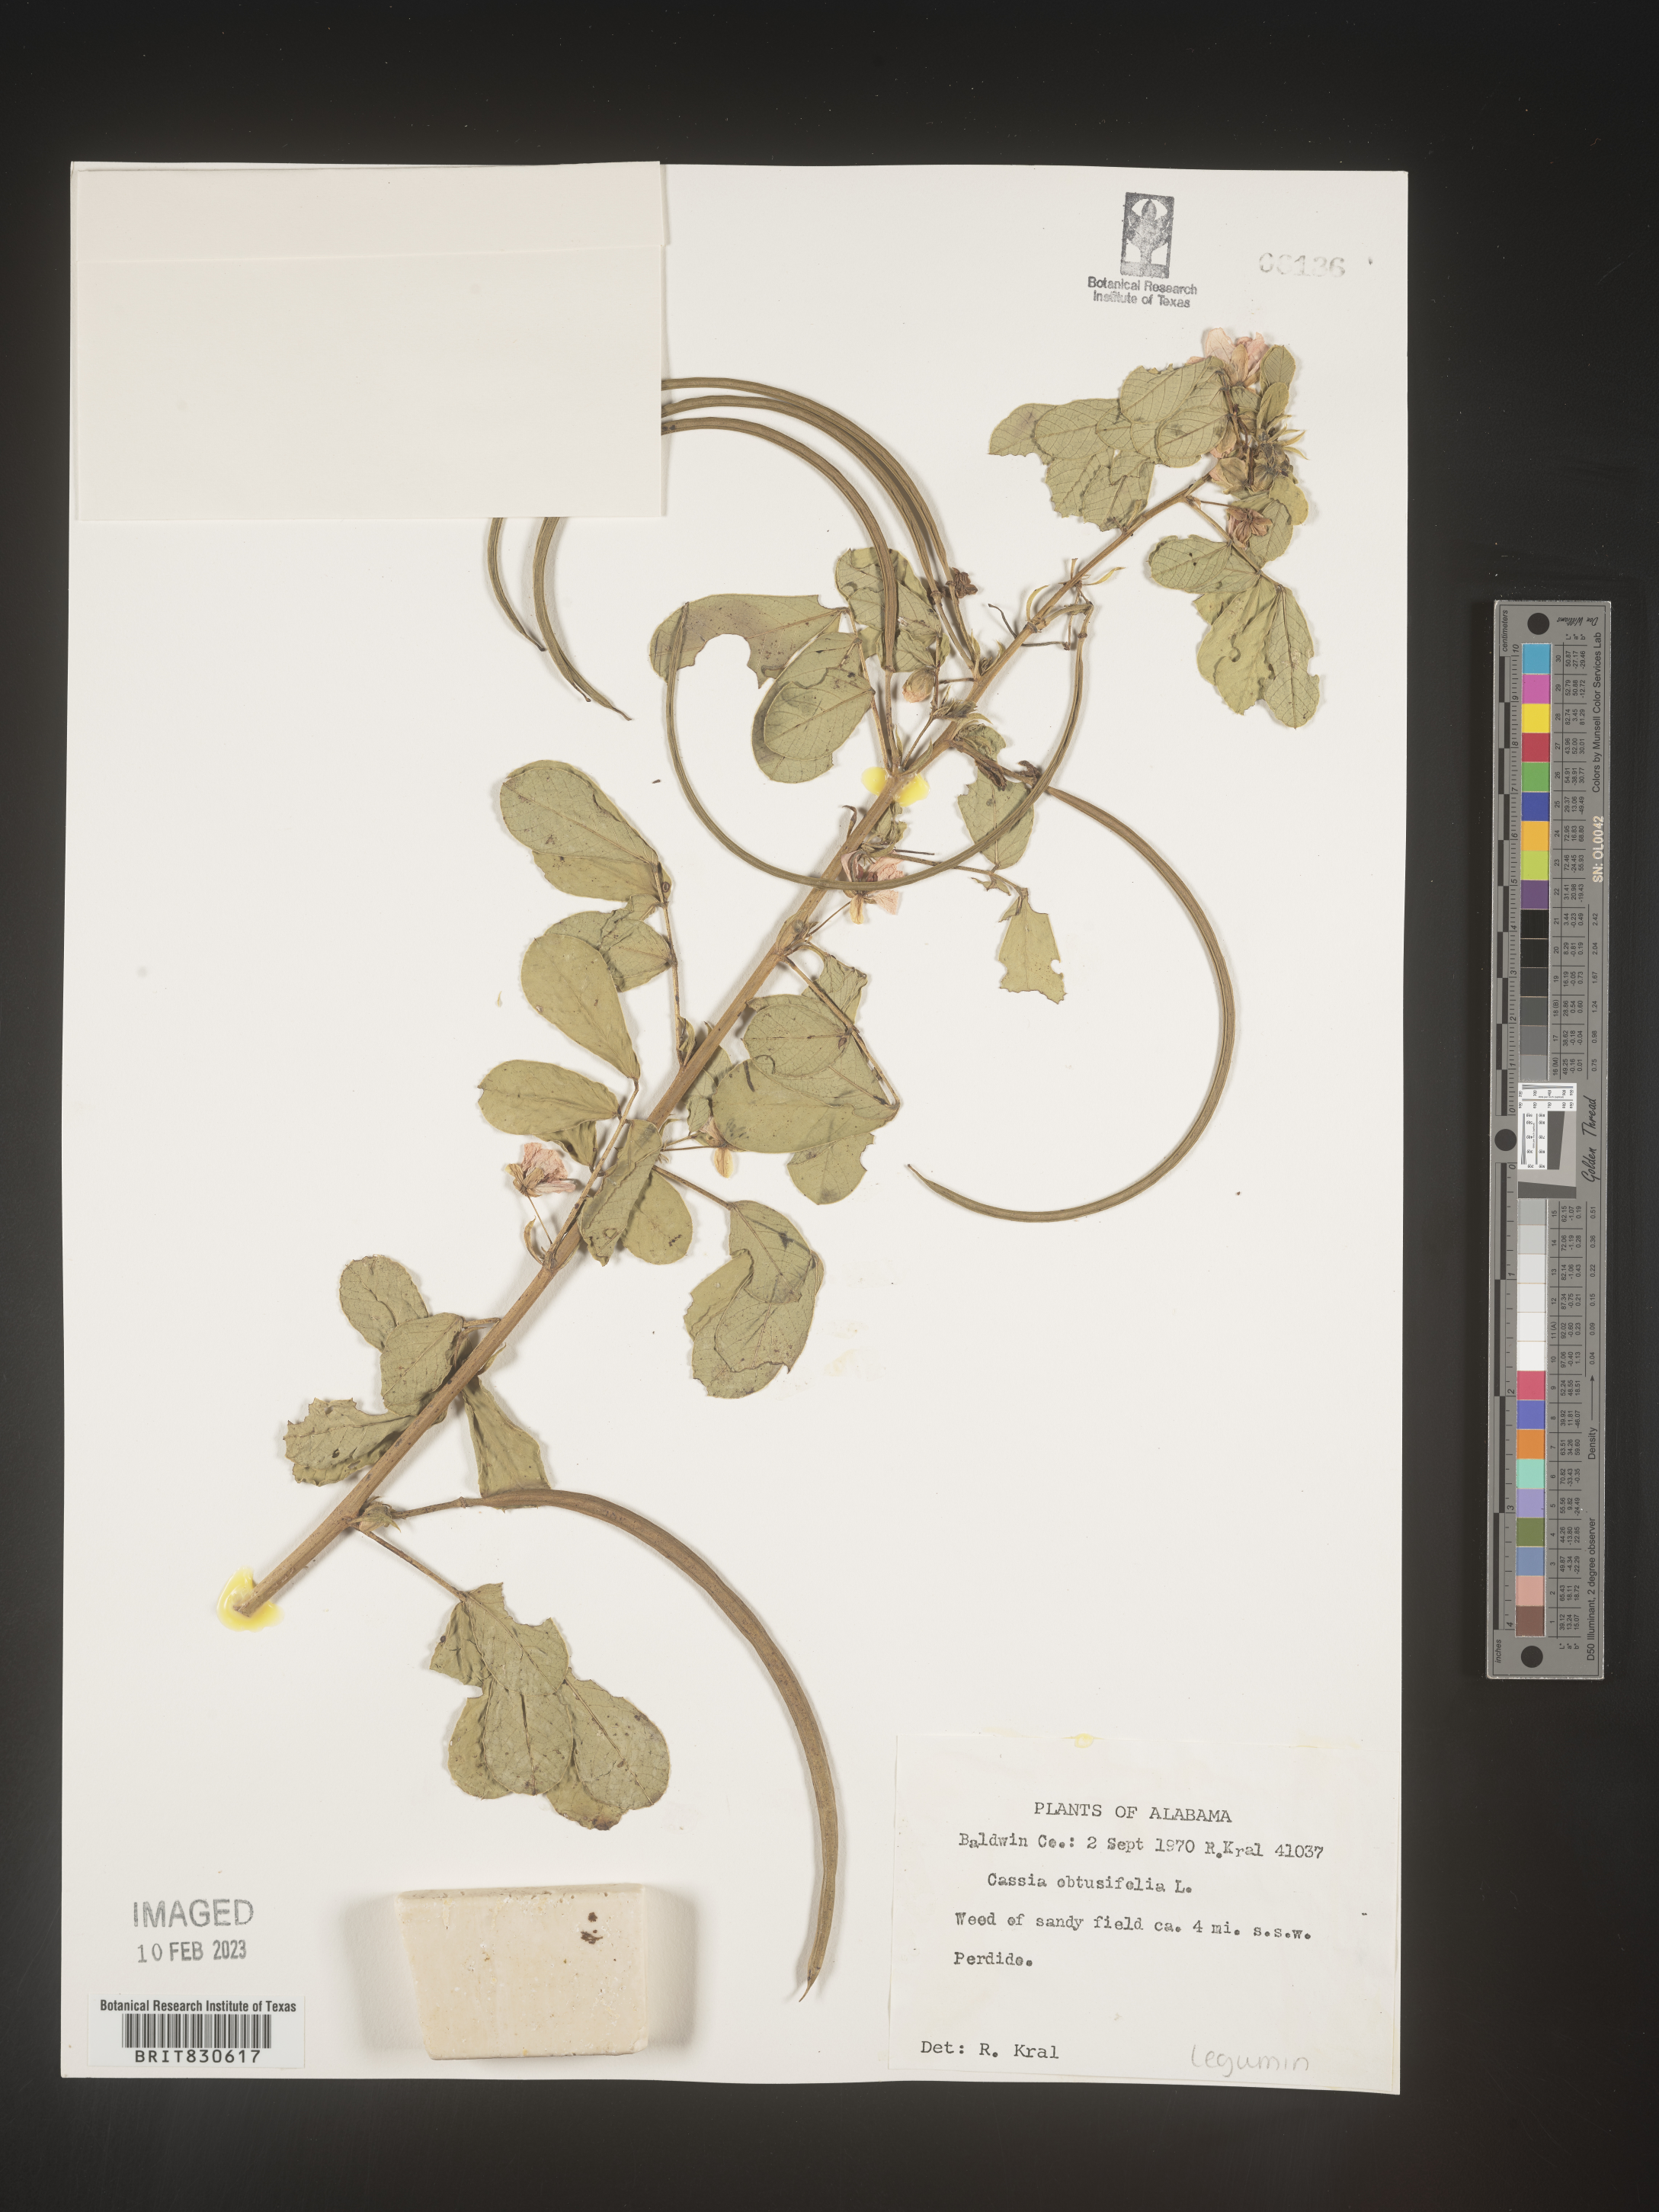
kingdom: Plantae
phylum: Tracheophyta
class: Magnoliopsida
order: Fabales
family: Fabaceae
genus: Senna
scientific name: Senna obtusifolia
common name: Java-bean
